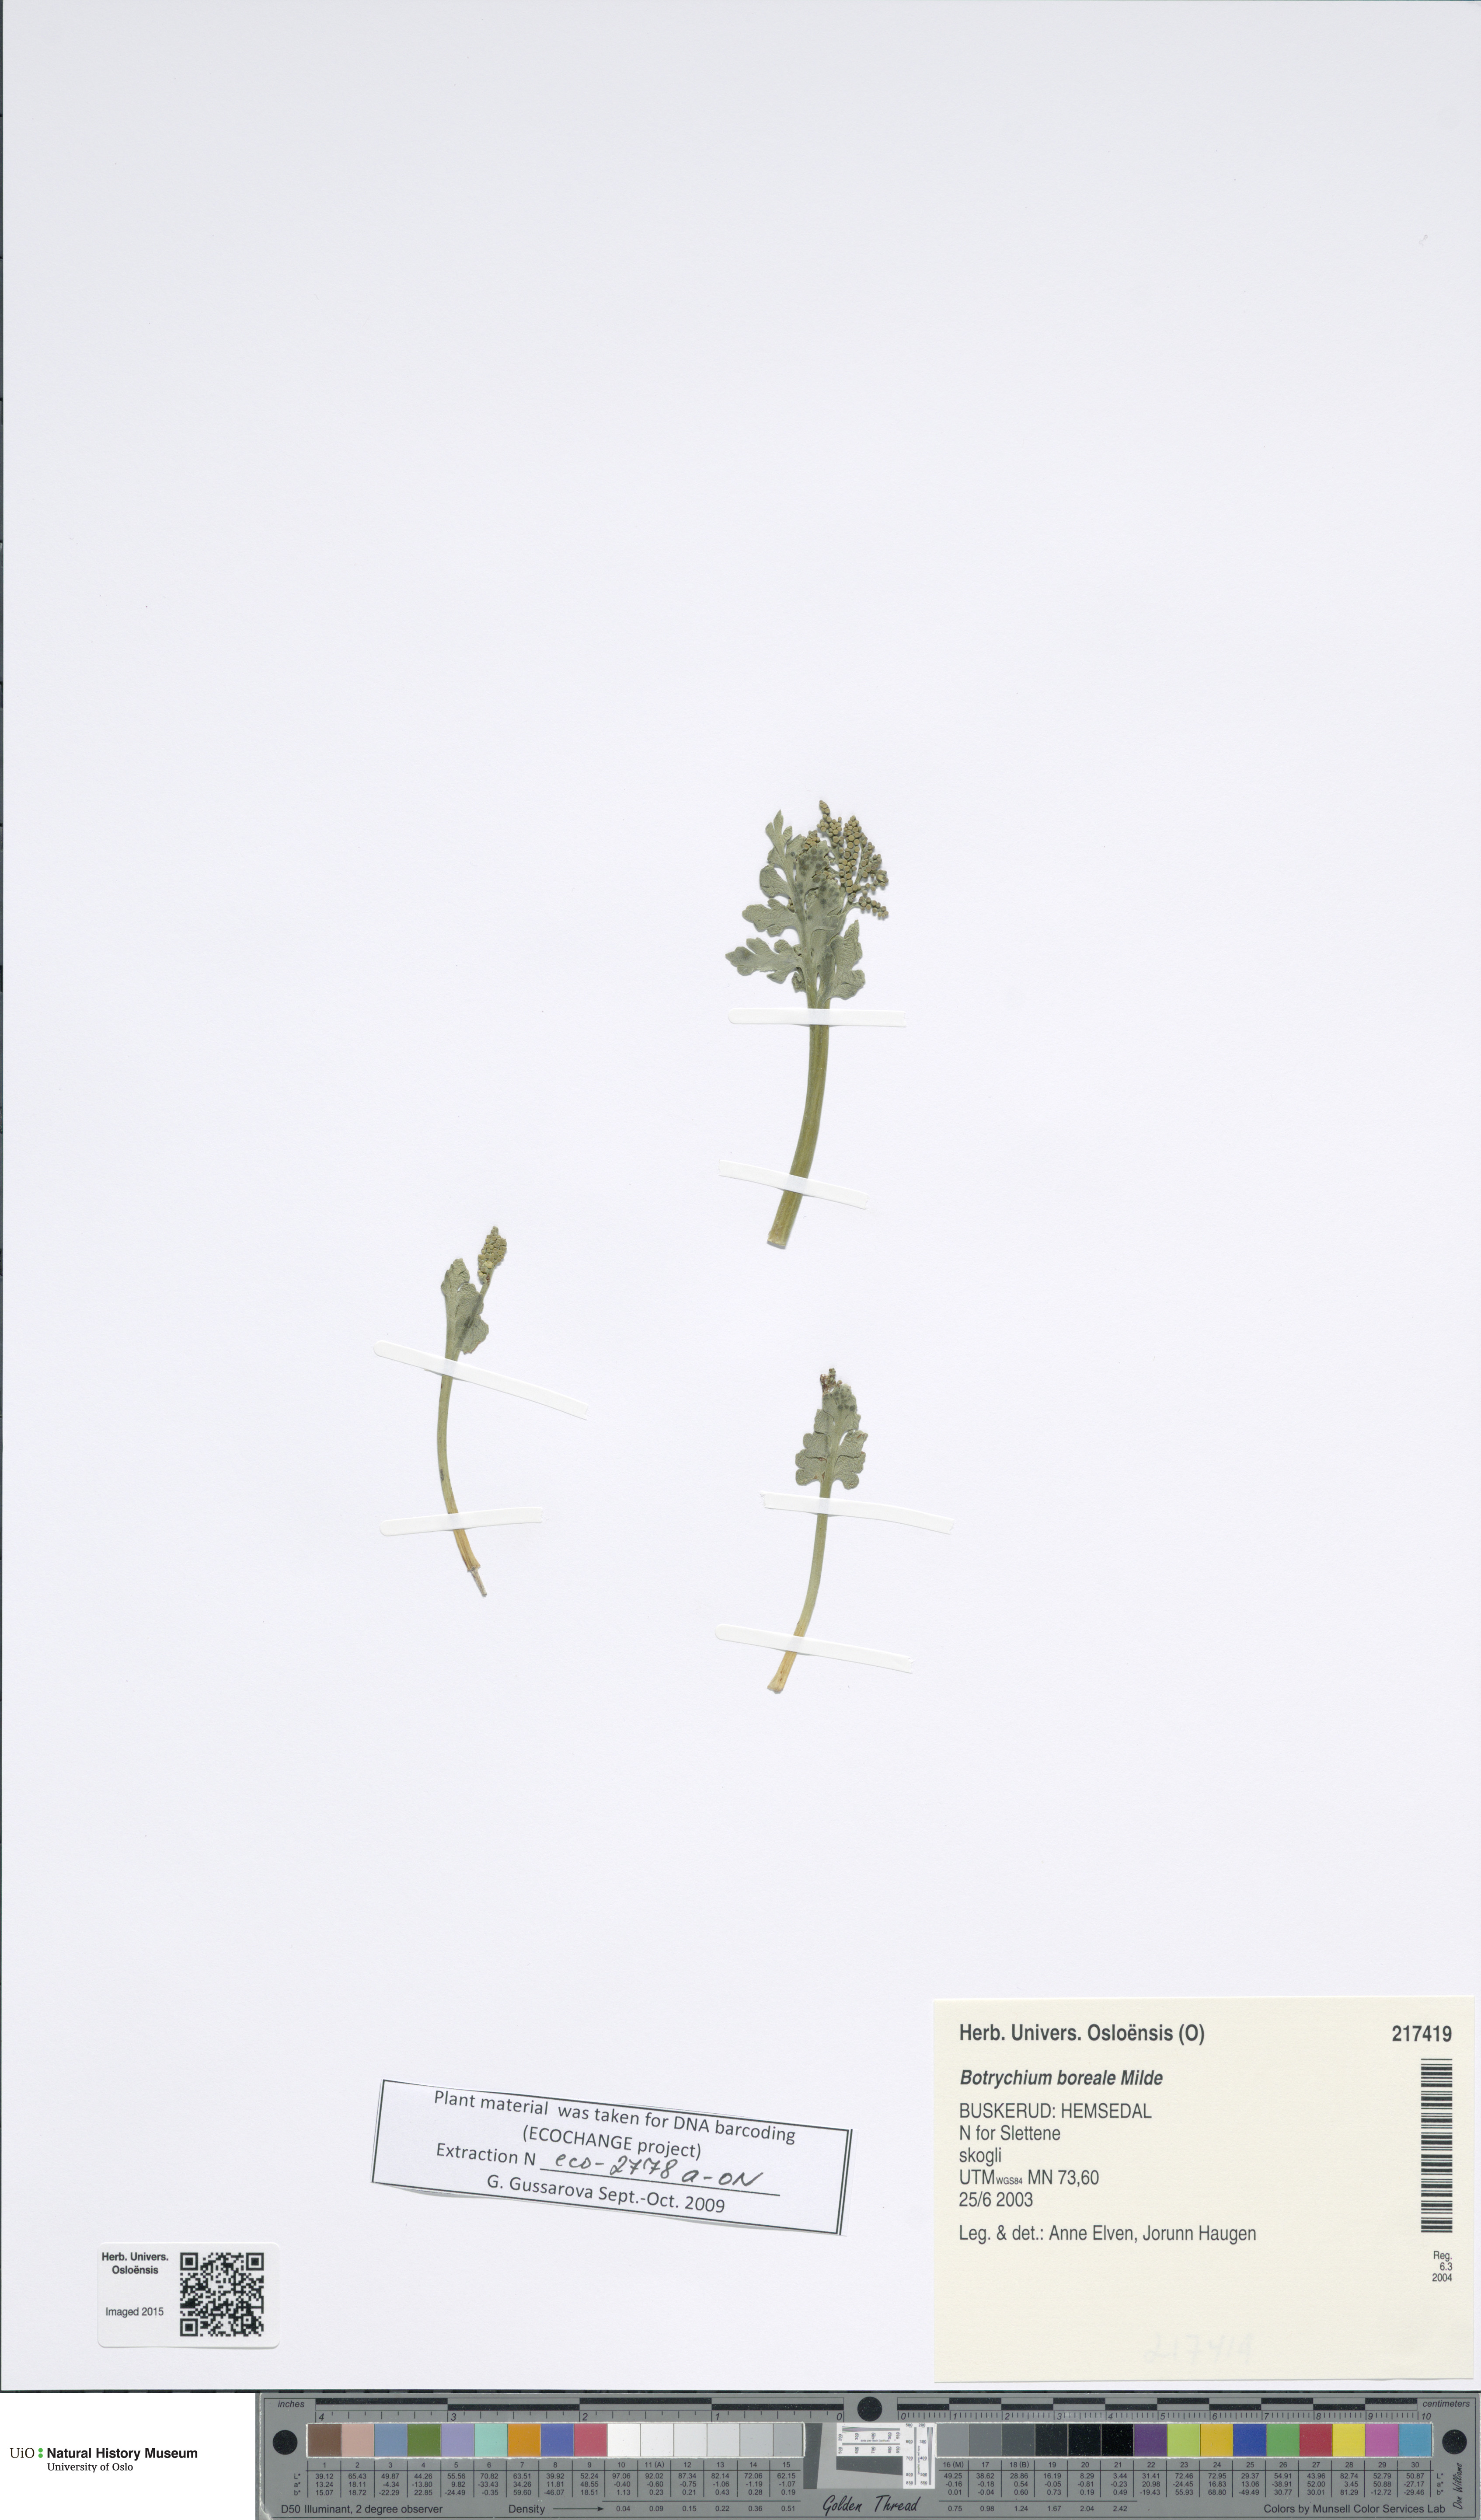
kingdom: Plantae
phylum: Tracheophyta
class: Polypodiopsida
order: Ophioglossales
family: Ophioglossaceae
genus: Botrychium
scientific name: Botrychium boreale
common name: Boreal moonwort
